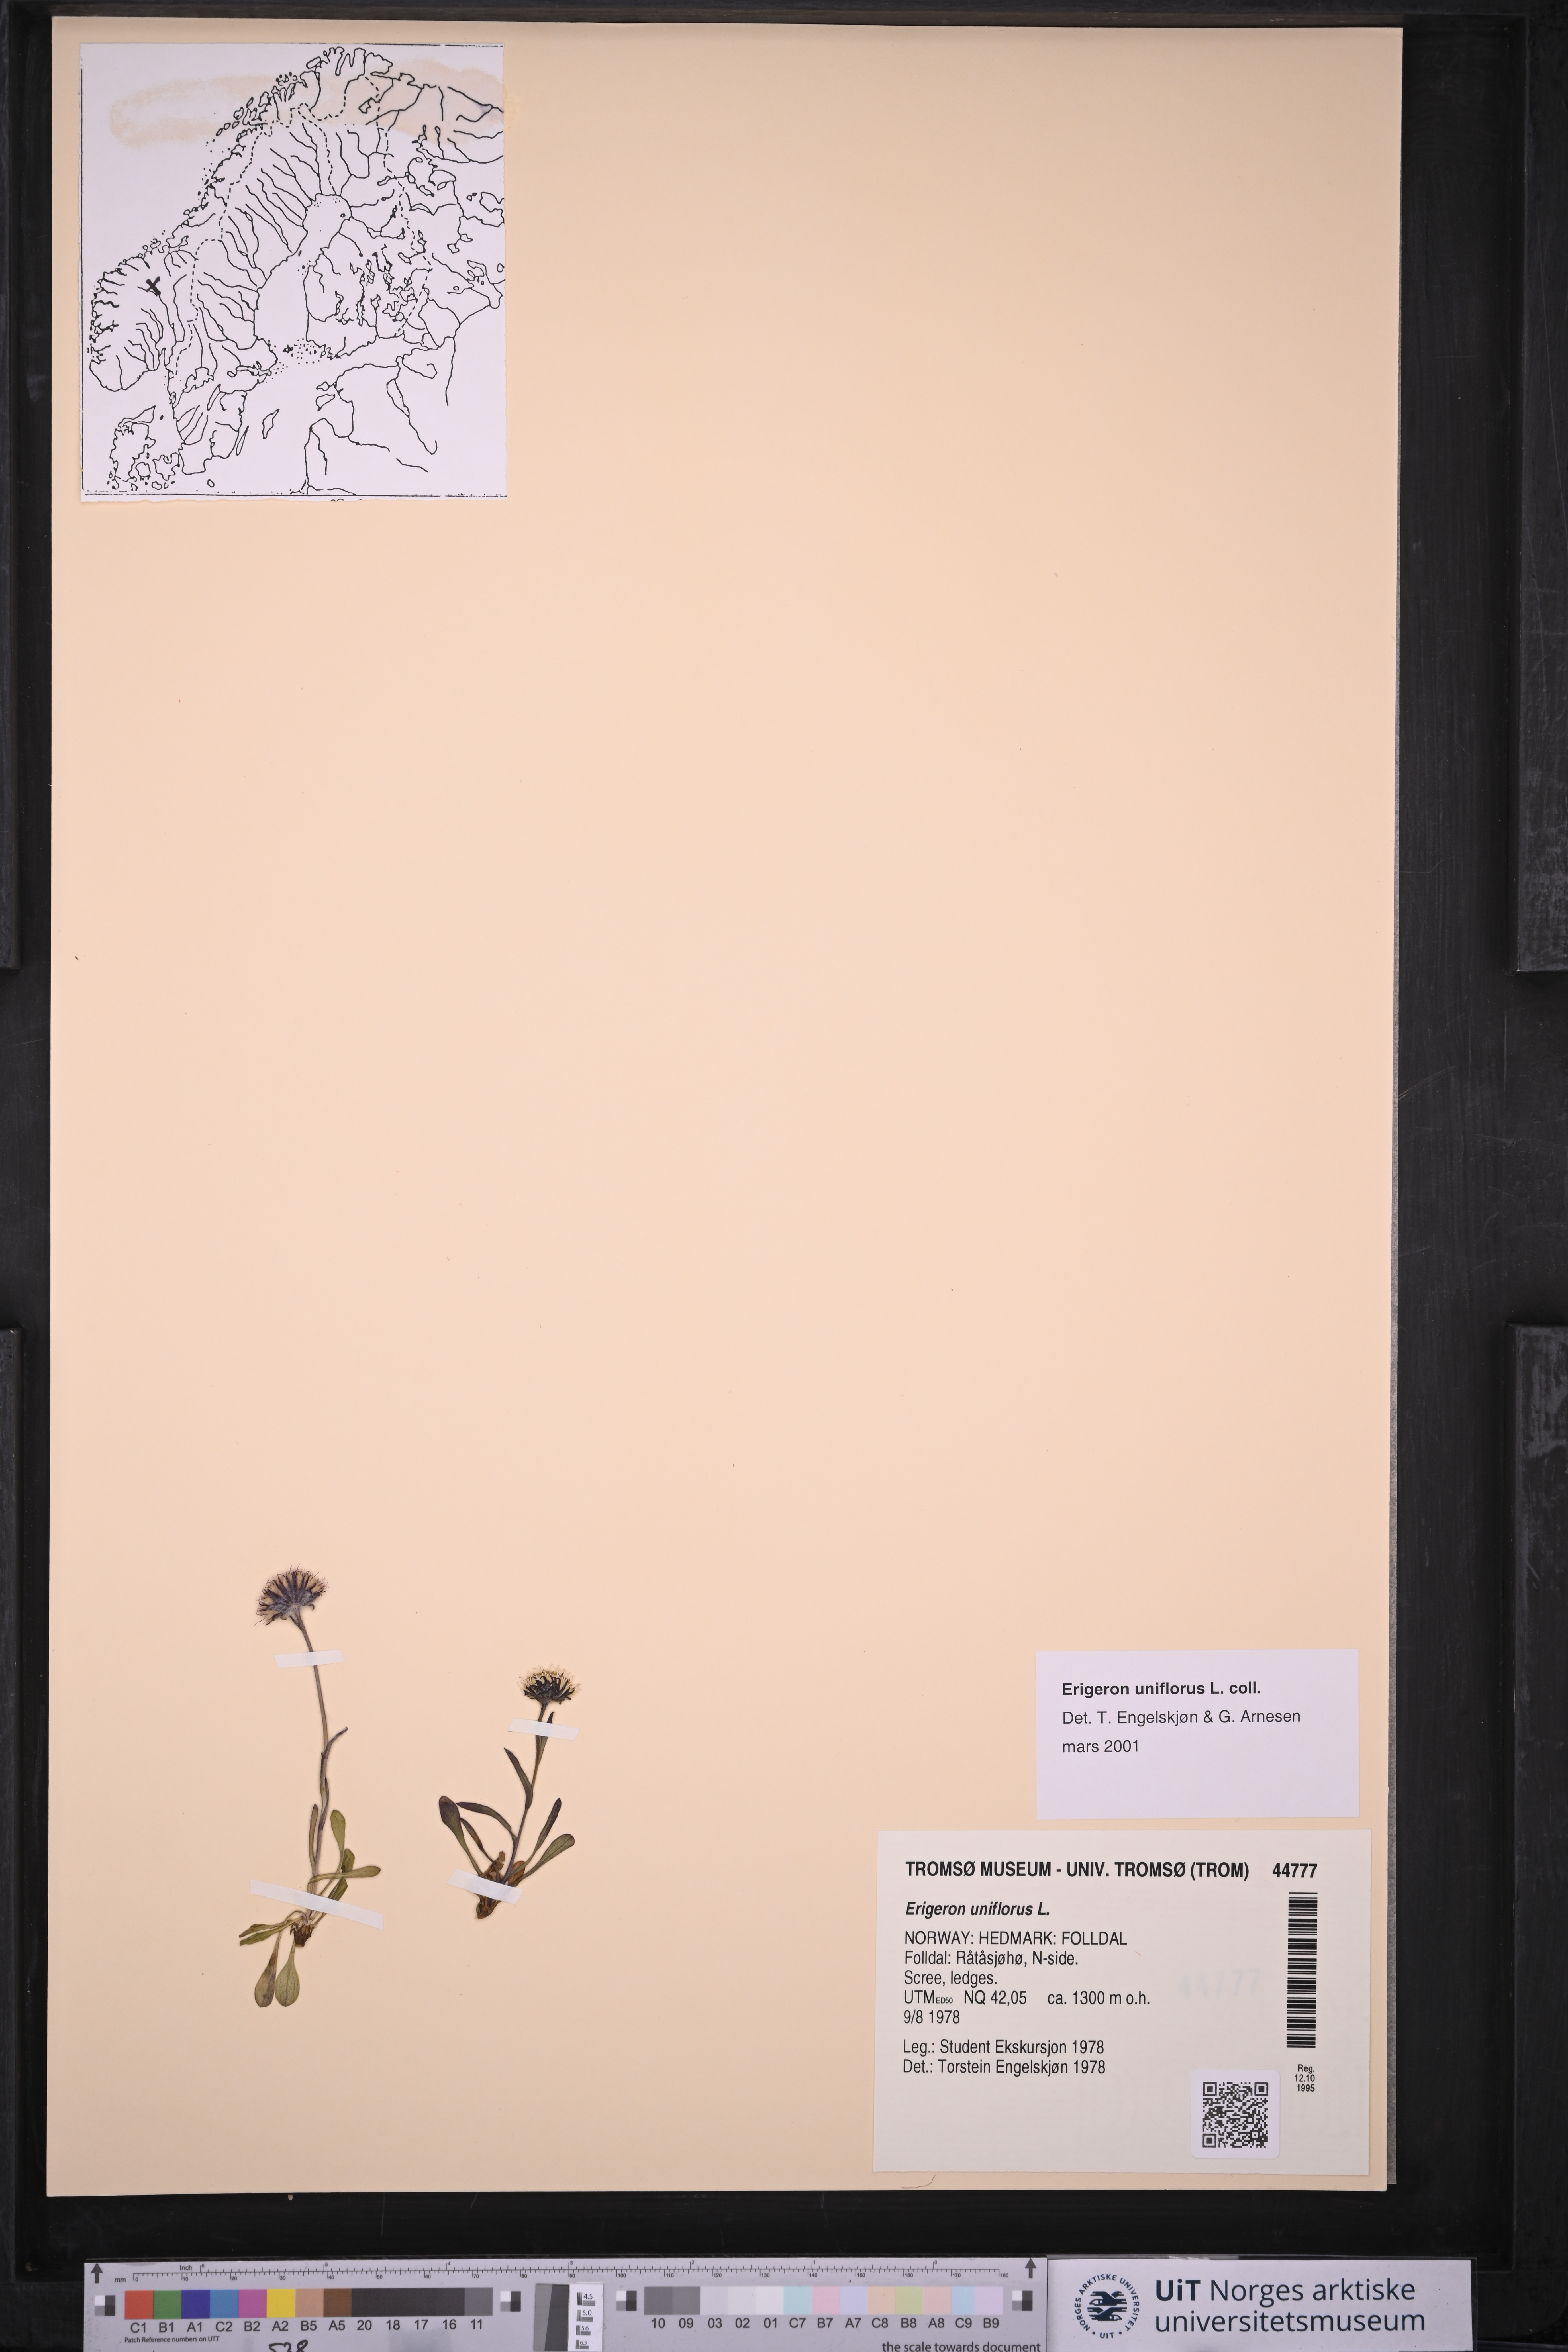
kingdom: Plantae
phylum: Tracheophyta
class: Magnoliopsida
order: Asterales
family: Asteraceae
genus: Erigeron
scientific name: Erigeron uniflorus
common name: Northern daisy
